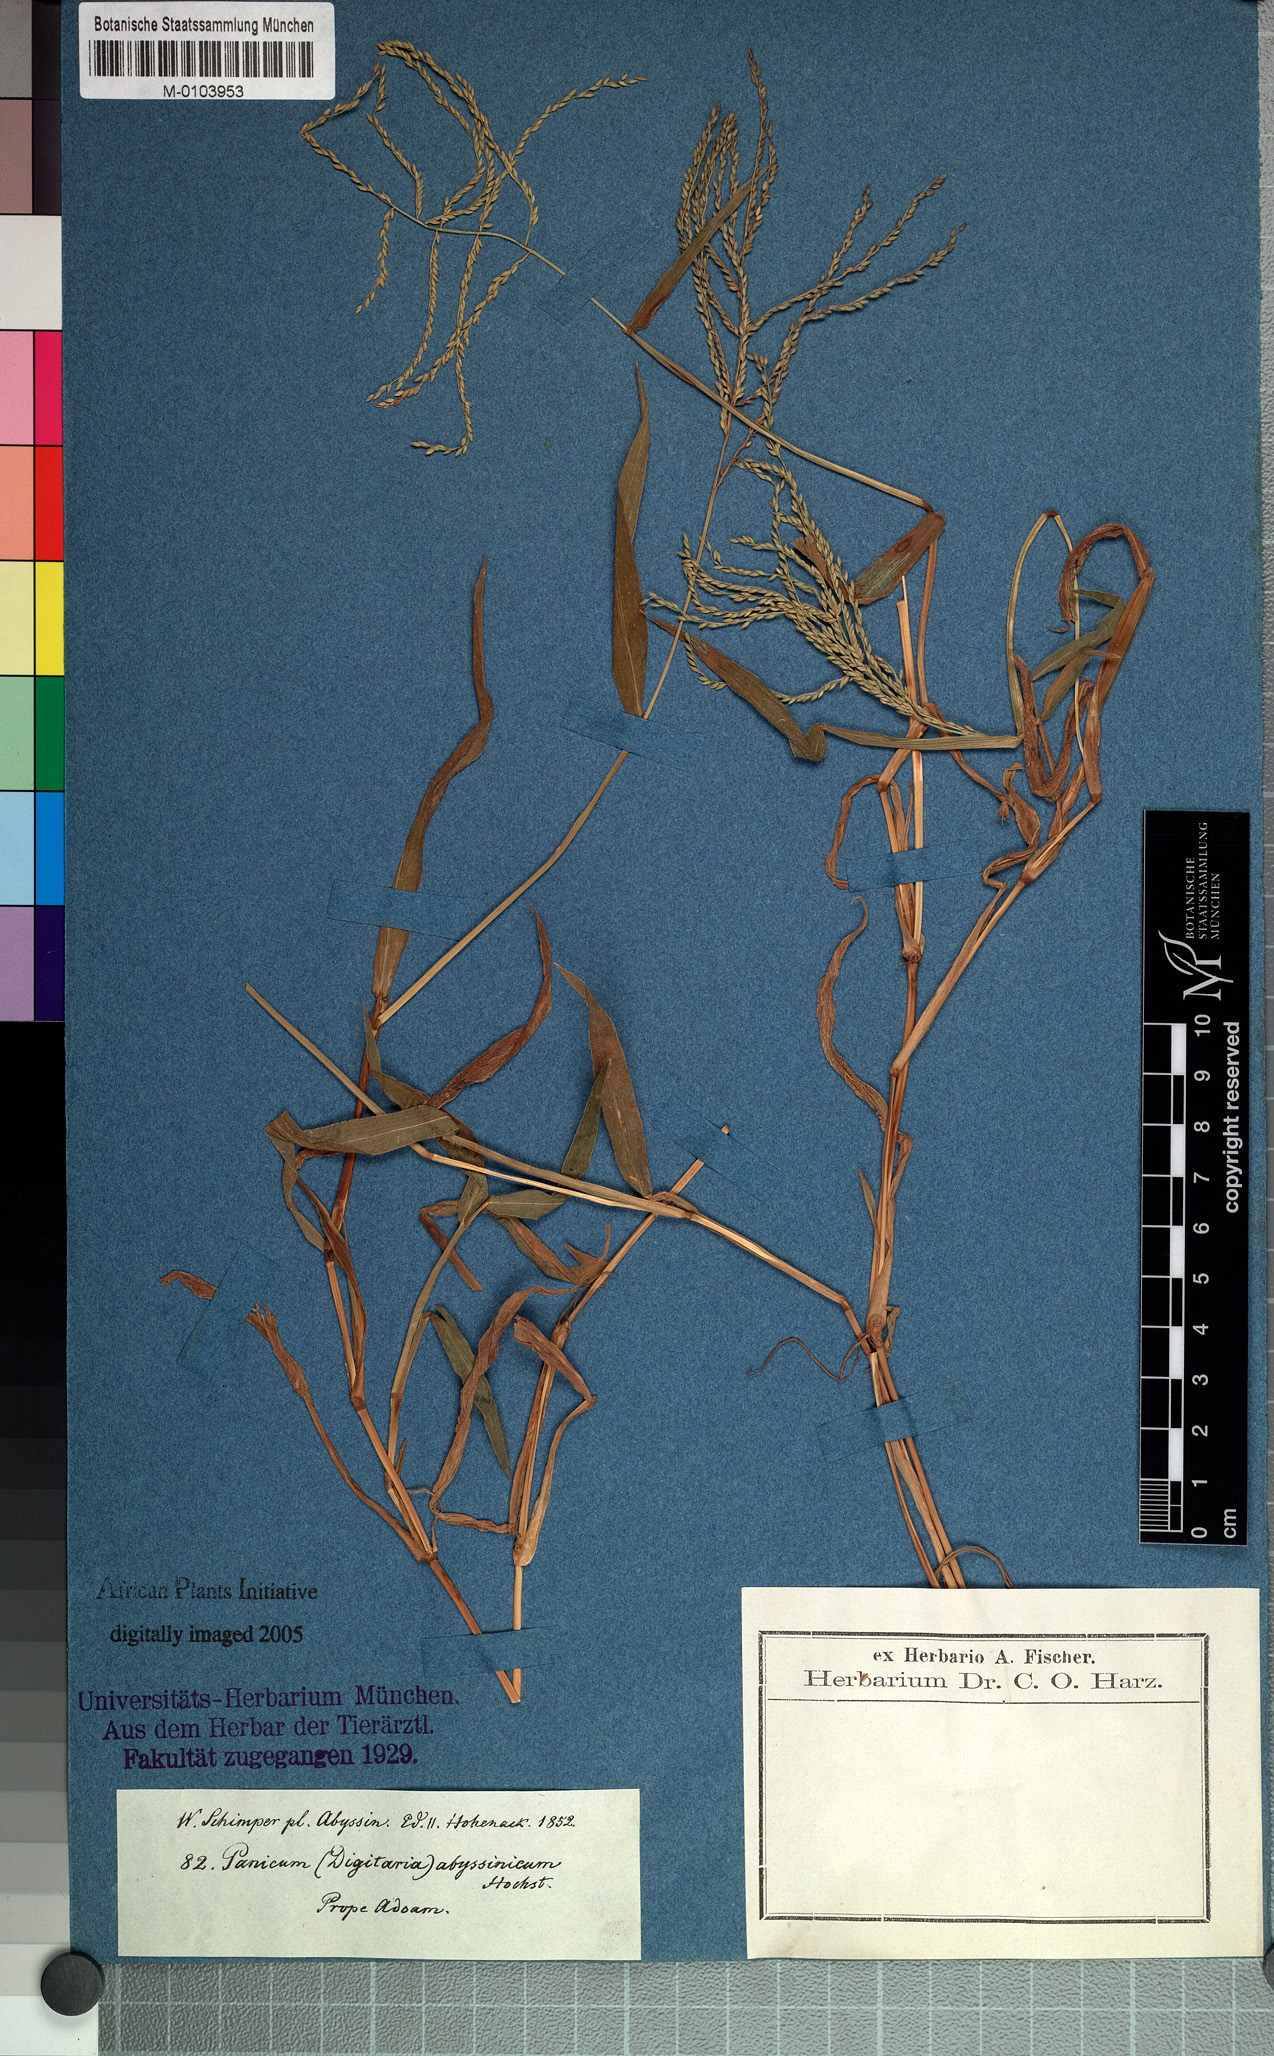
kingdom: Plantae
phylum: Tracheophyta
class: Liliopsida
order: Poales
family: Poaceae
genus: Digitaria
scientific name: Digitaria abyssinica
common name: African couchgrass
